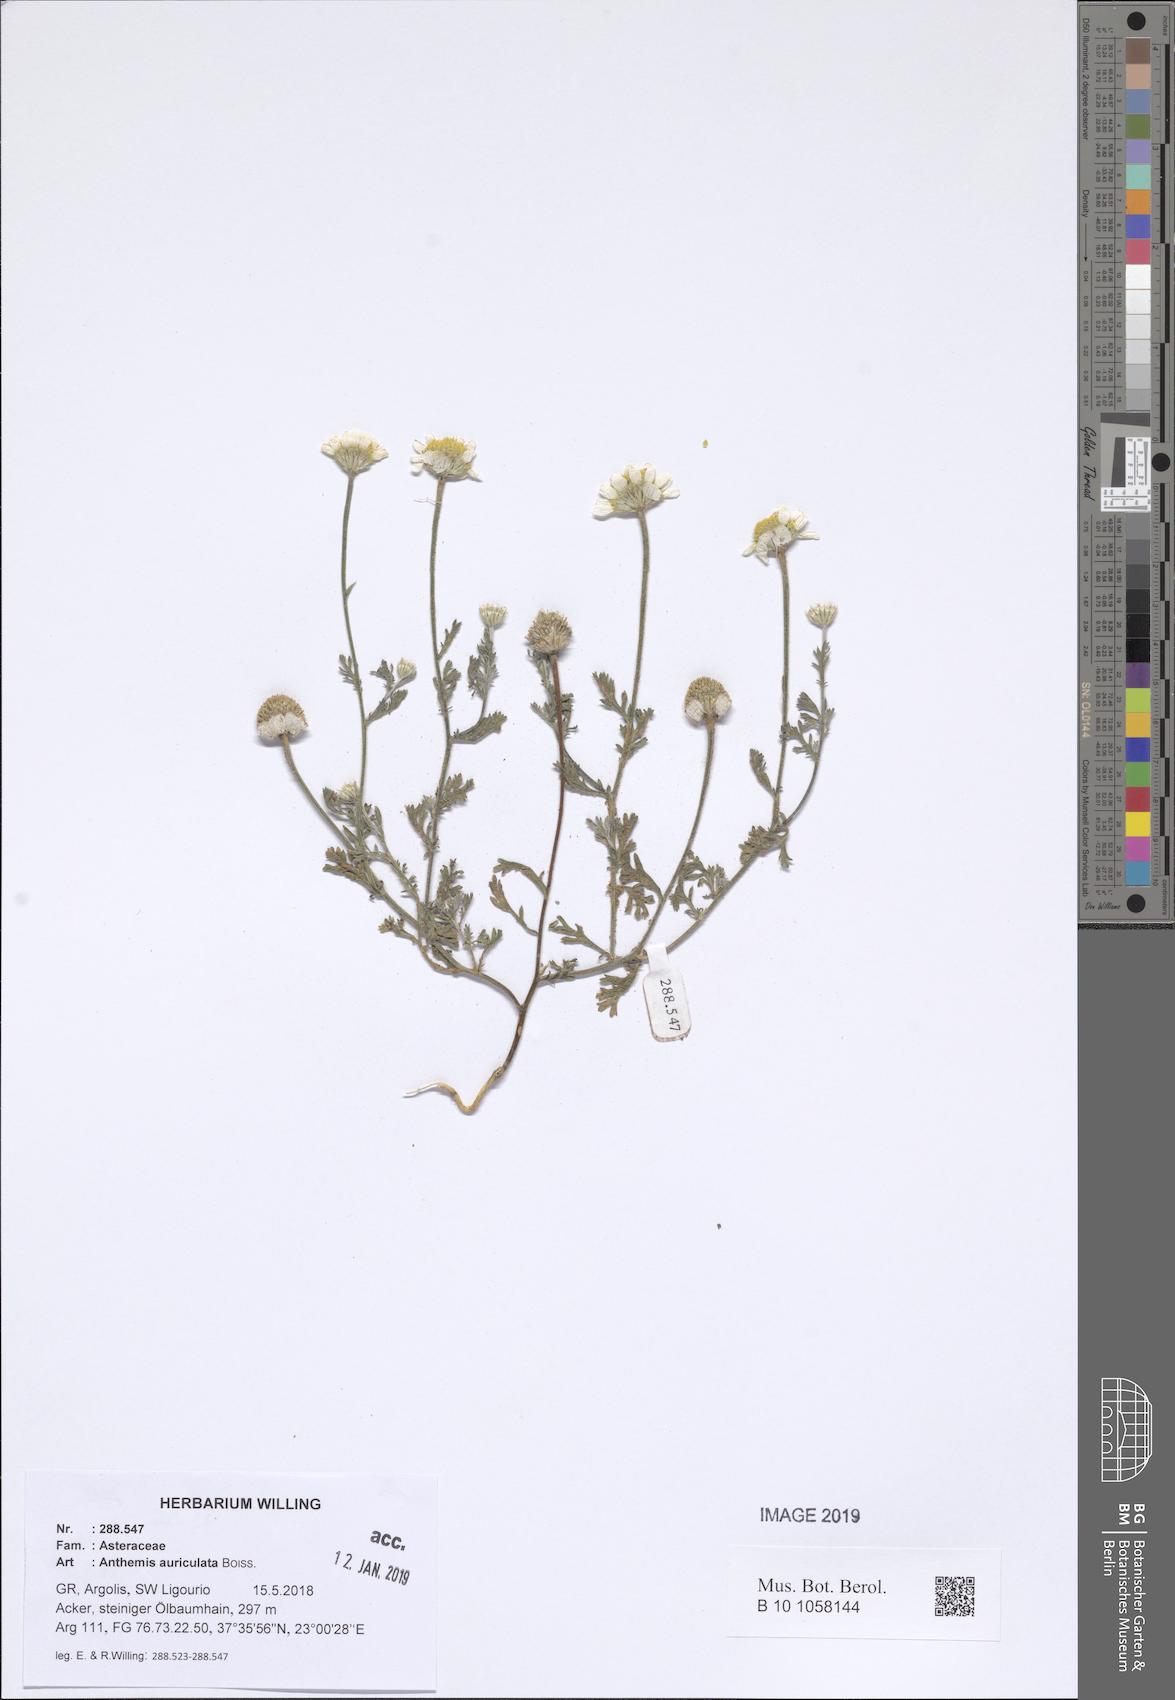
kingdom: Plantae
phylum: Tracheophyta
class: Magnoliopsida
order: Asterales
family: Asteraceae
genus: Anthemis
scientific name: Anthemis auriculata
